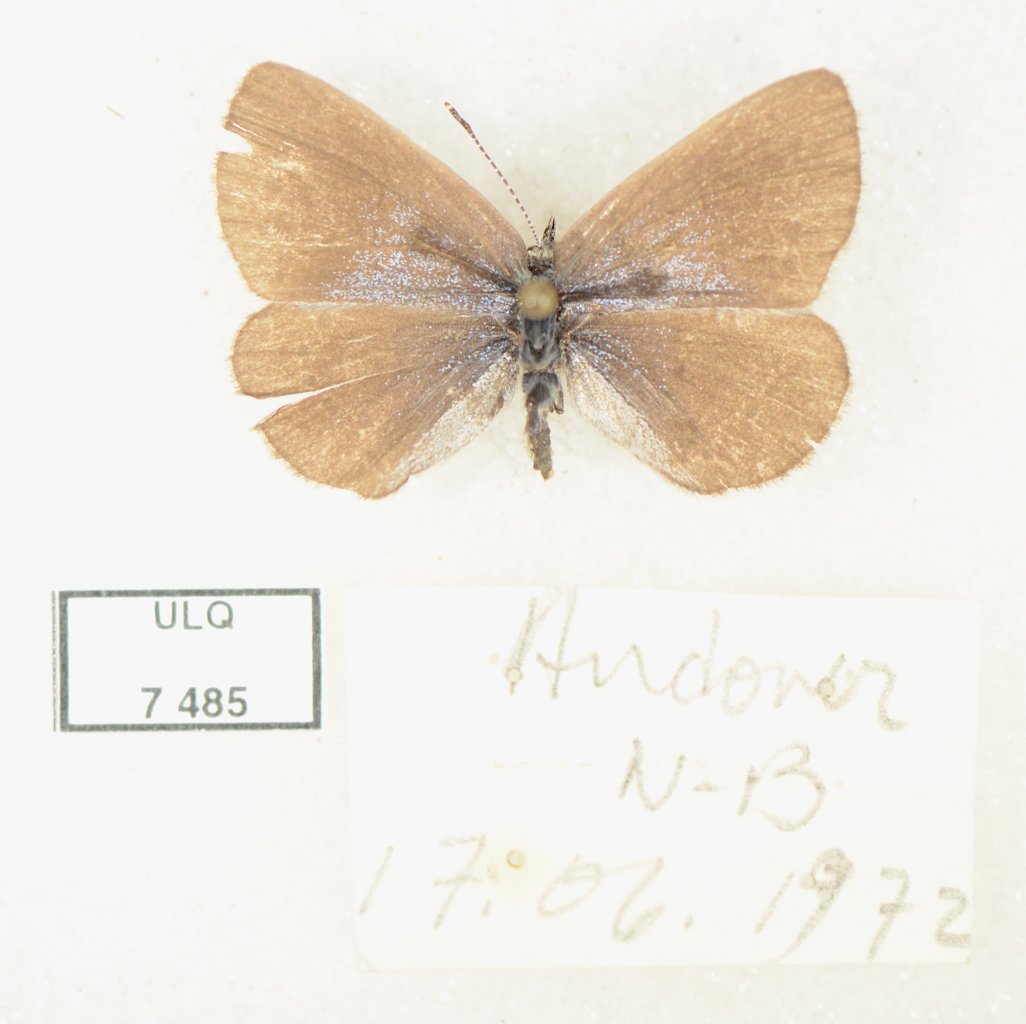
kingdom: Animalia
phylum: Arthropoda
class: Insecta
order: Lepidoptera
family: Lycaenidae
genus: Glaucopsyche
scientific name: Glaucopsyche lygdamus
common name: Silvery Blue
